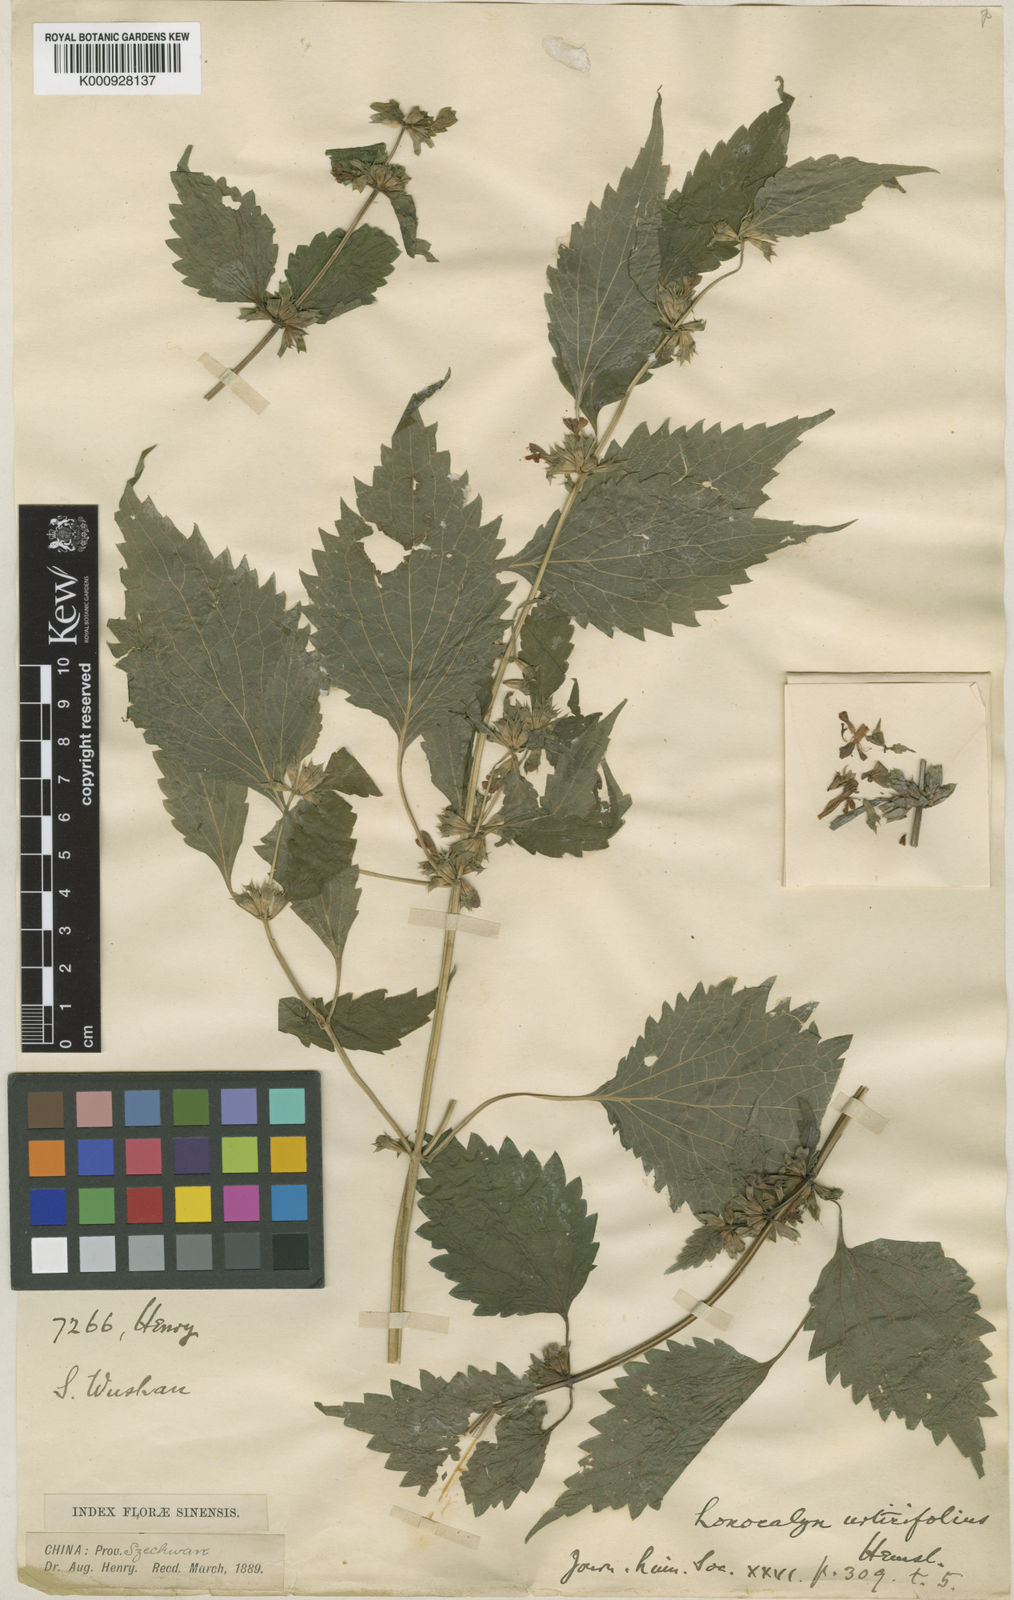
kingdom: Plantae
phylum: Tracheophyta
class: Magnoliopsida
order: Lamiales
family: Lamiaceae
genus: Loxocalyx
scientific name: Loxocalyx urticifolius
